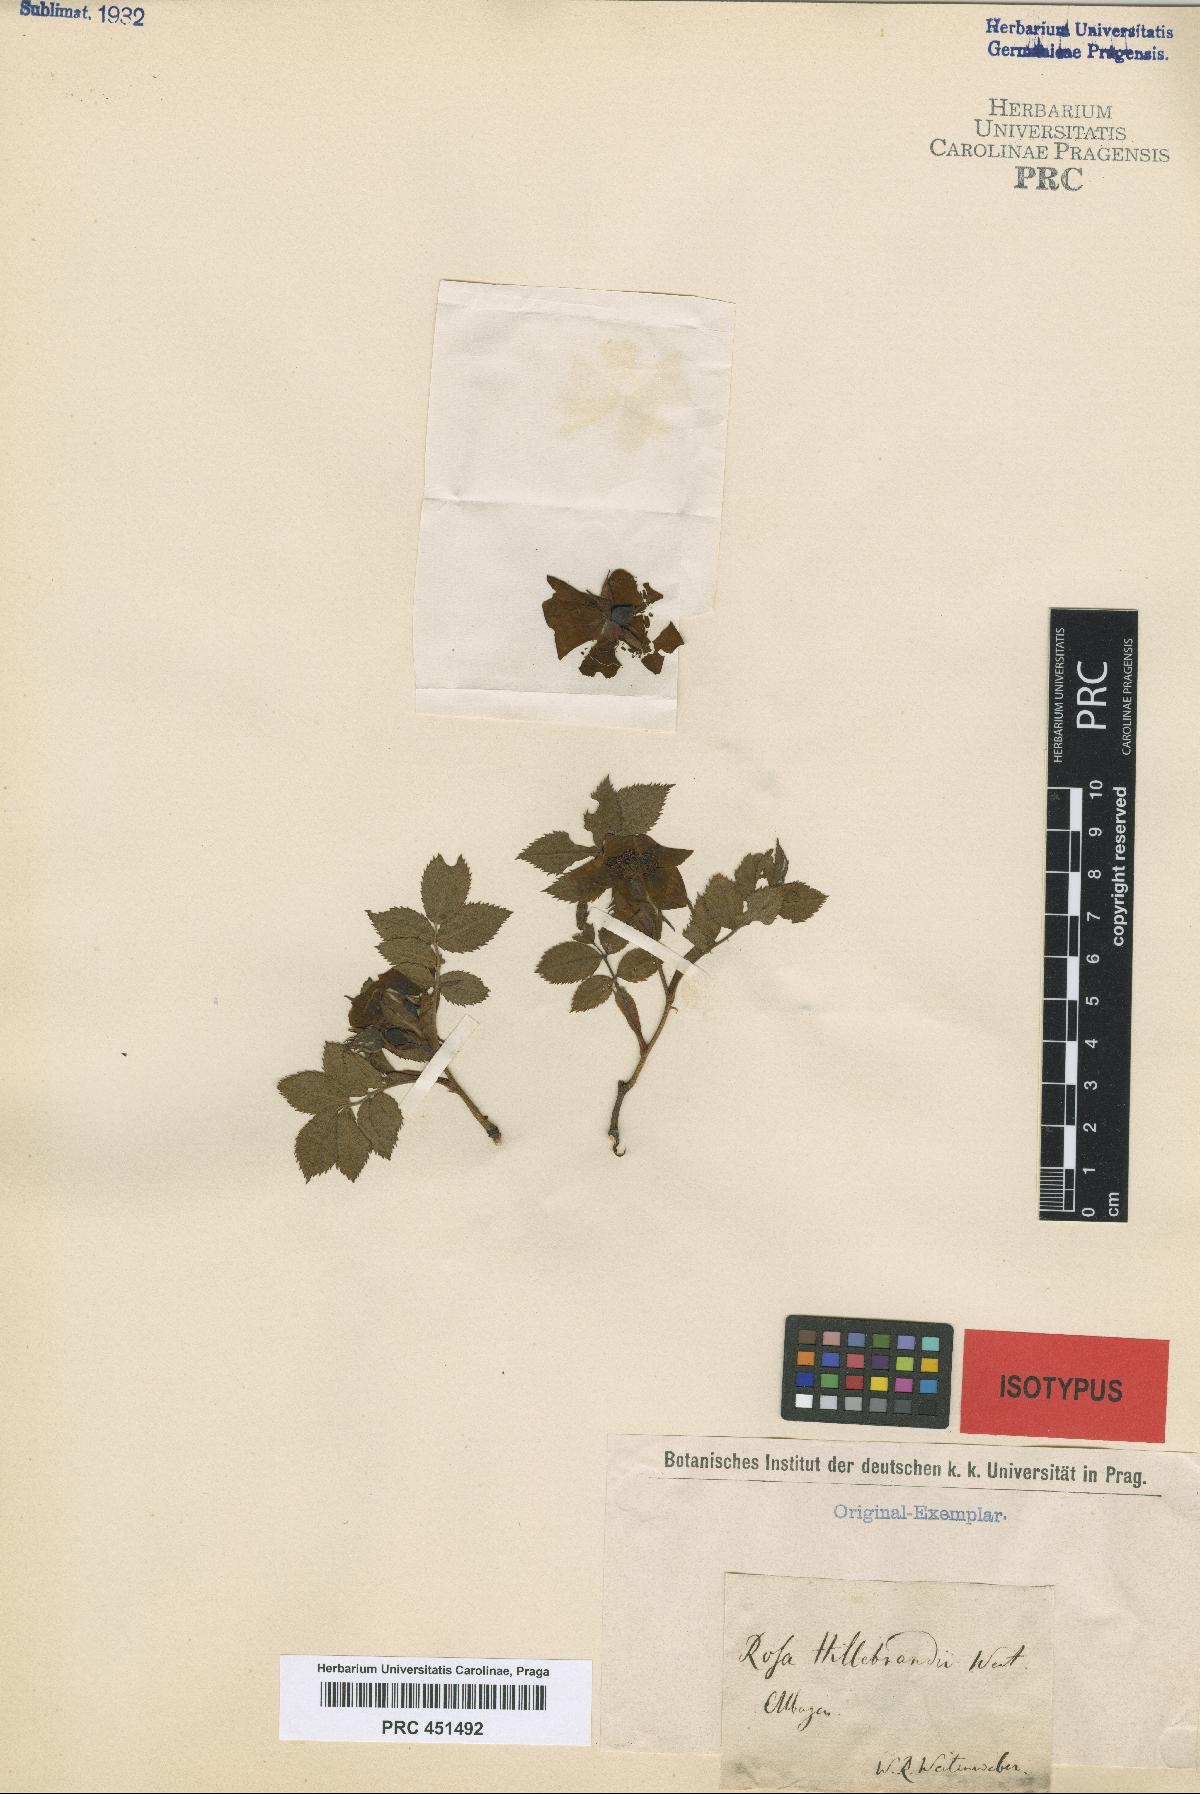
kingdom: Plantae
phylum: Tracheophyta
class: Magnoliopsida
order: Rosales
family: Rosaceae
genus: Rosa
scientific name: Rosa corymbifera
